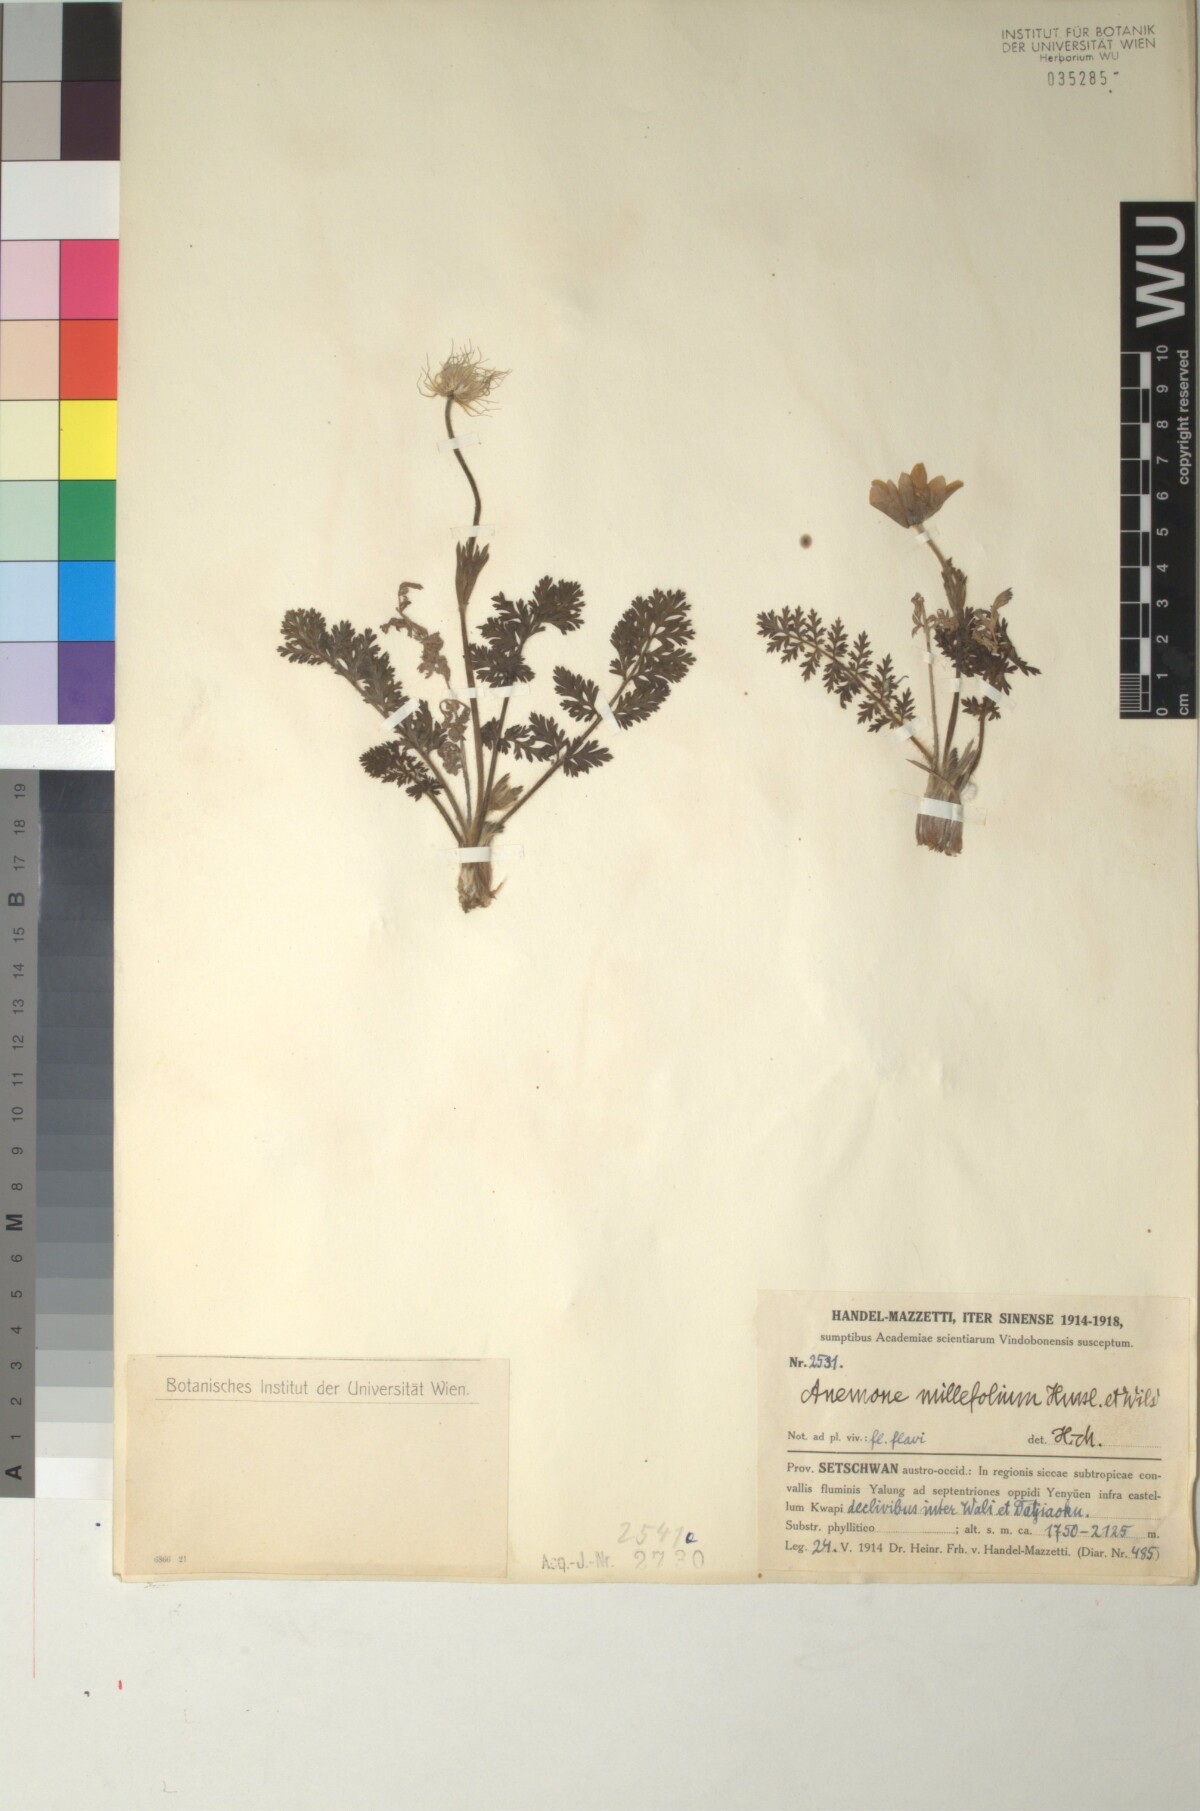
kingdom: Plantae
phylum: Tracheophyta
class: Magnoliopsida
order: Ranunculales
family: Ranunculaceae
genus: Pulsatilla
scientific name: Pulsatilla millefolium
